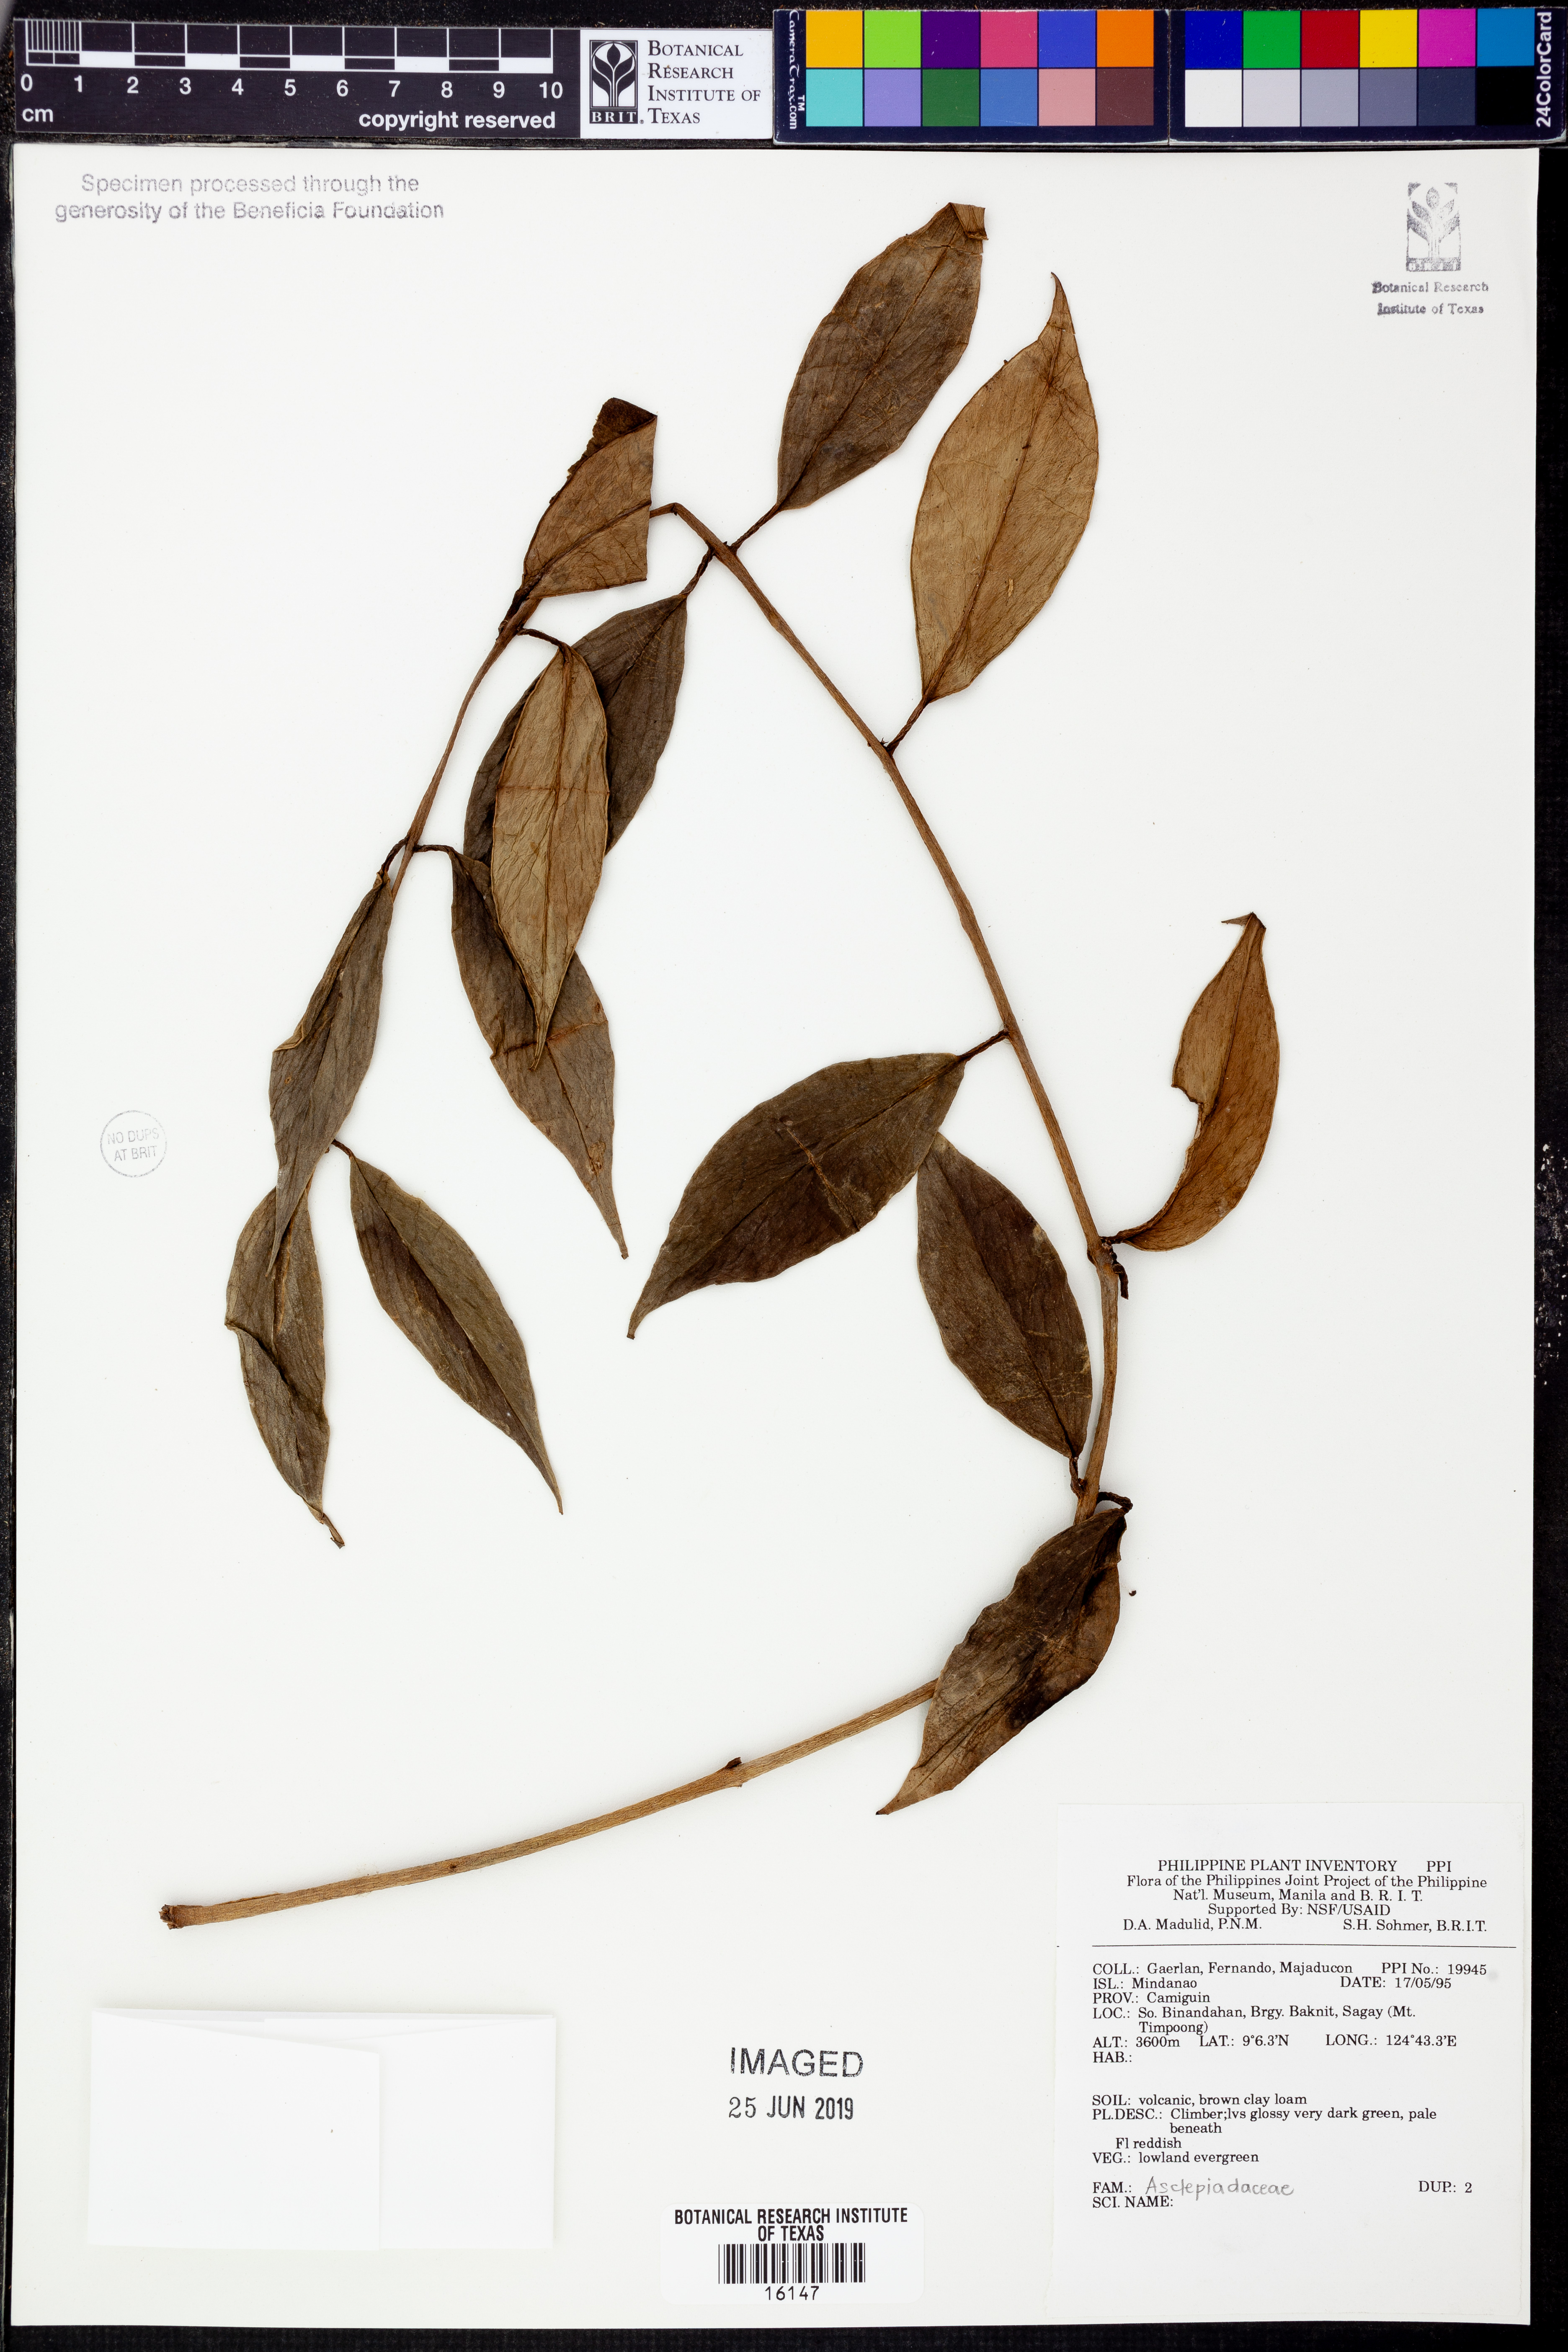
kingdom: Plantae
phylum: Tracheophyta
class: Magnoliopsida
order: Gentianales
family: Apocynaceae
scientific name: Apocynaceae
